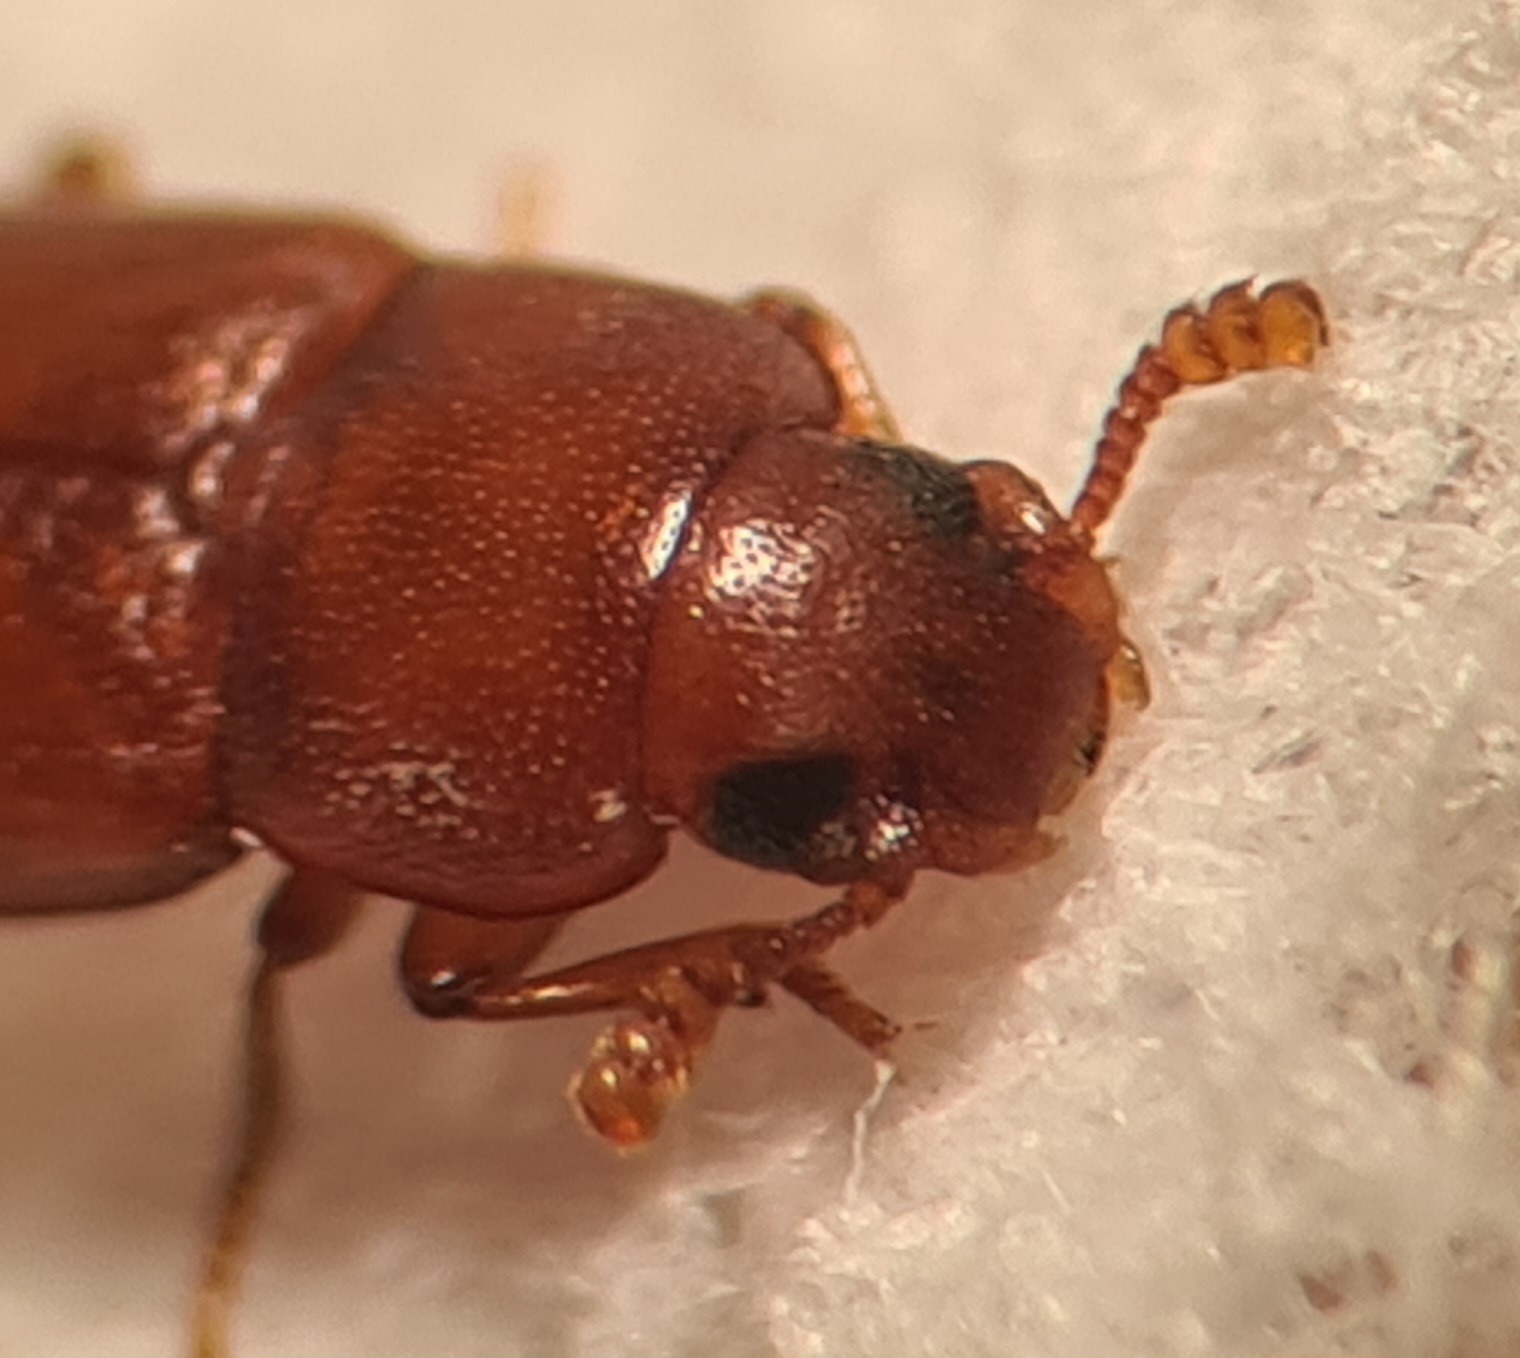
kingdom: Animalia
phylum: Arthropoda
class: Insecta
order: Coleoptera
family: Tenebrionidae
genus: Tribolium
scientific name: Tribolium castaneum
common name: Rødbrun rismelbille
